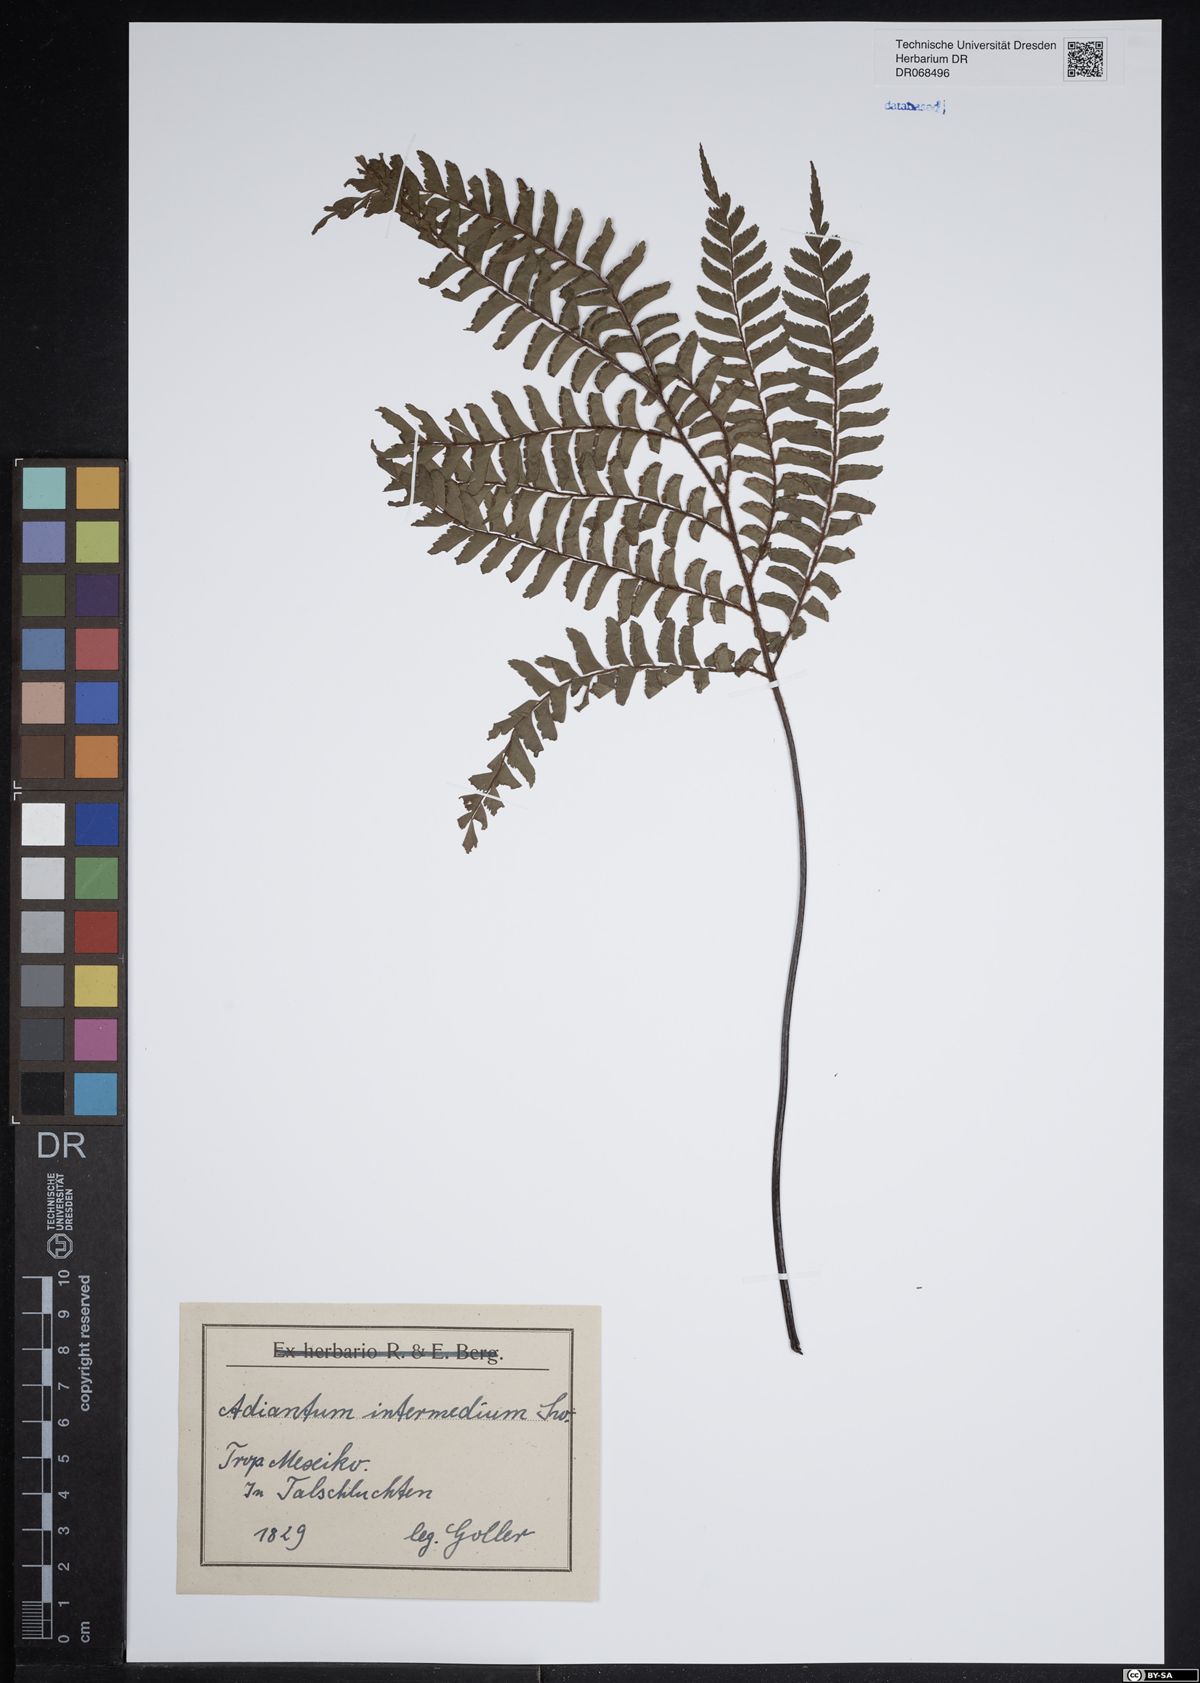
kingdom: Plantae
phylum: Tracheophyta
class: Polypodiopsida
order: Polypodiales
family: Pteridaceae
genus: Adiantum
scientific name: Adiantum intermedium
